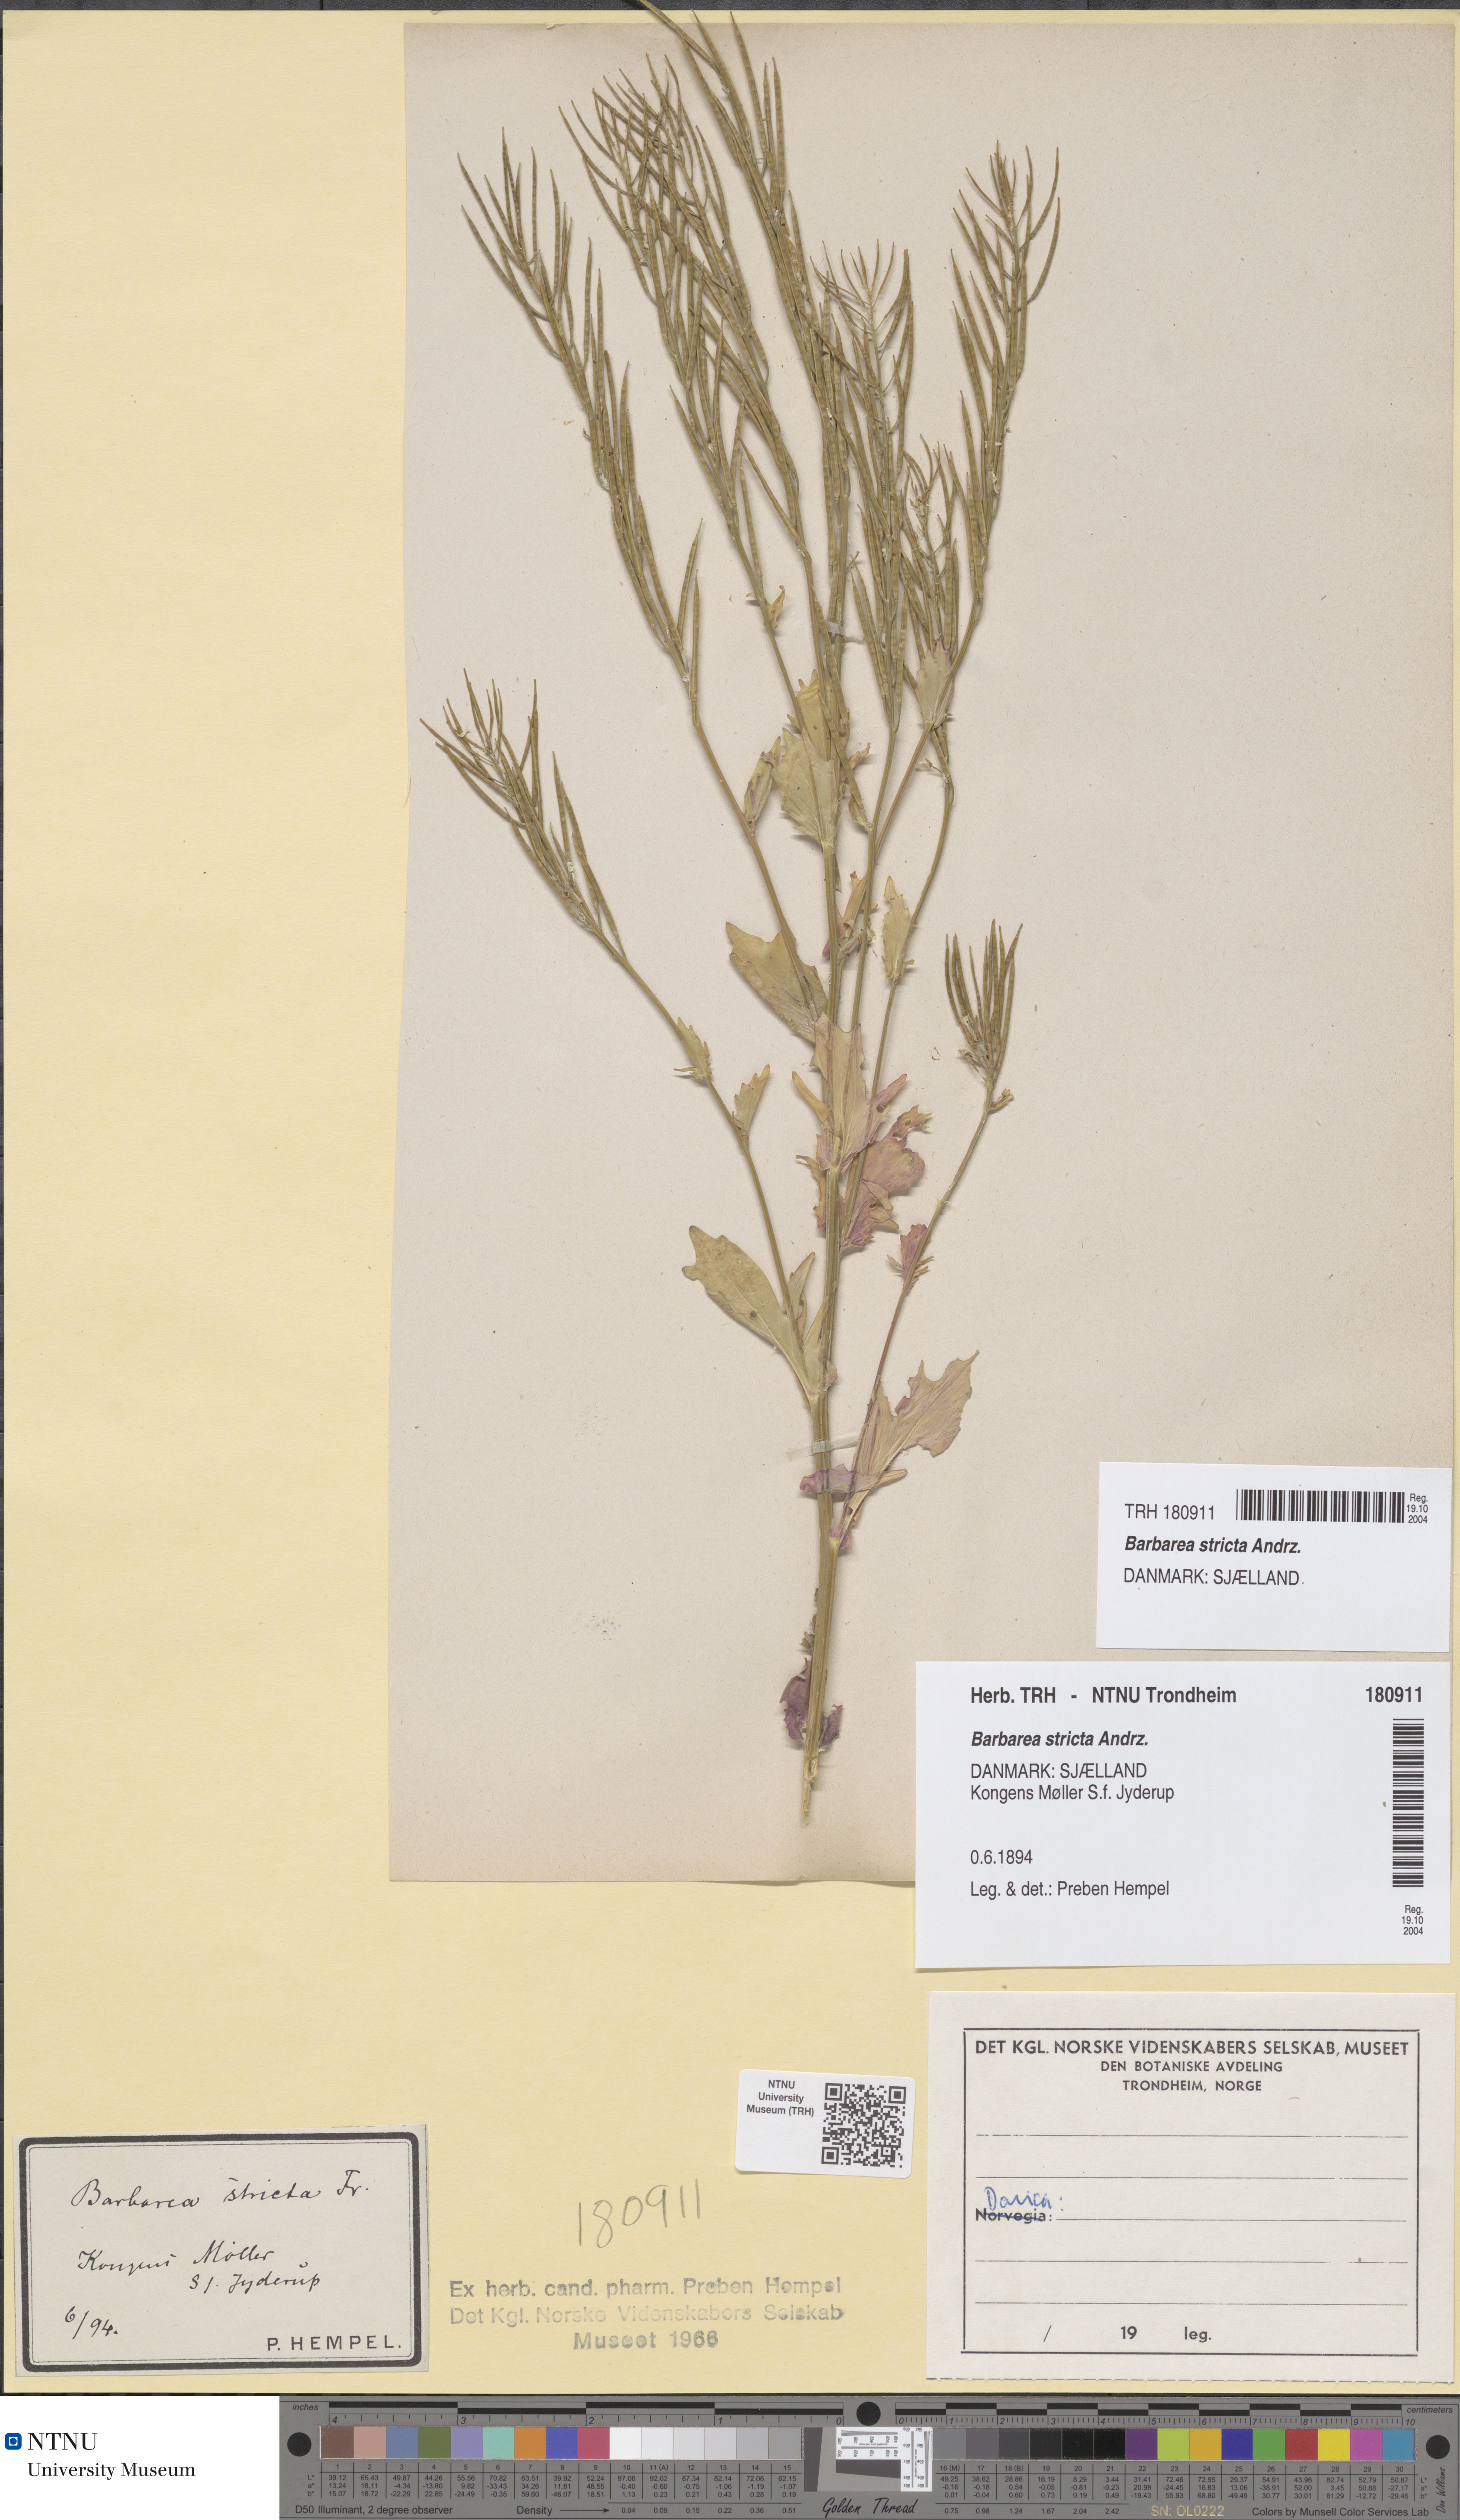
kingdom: Plantae
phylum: Tracheophyta
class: Magnoliopsida
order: Brassicales
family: Brassicaceae
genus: Barbarea
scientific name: Barbarea stricta
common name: Small-flowered winter-cress
